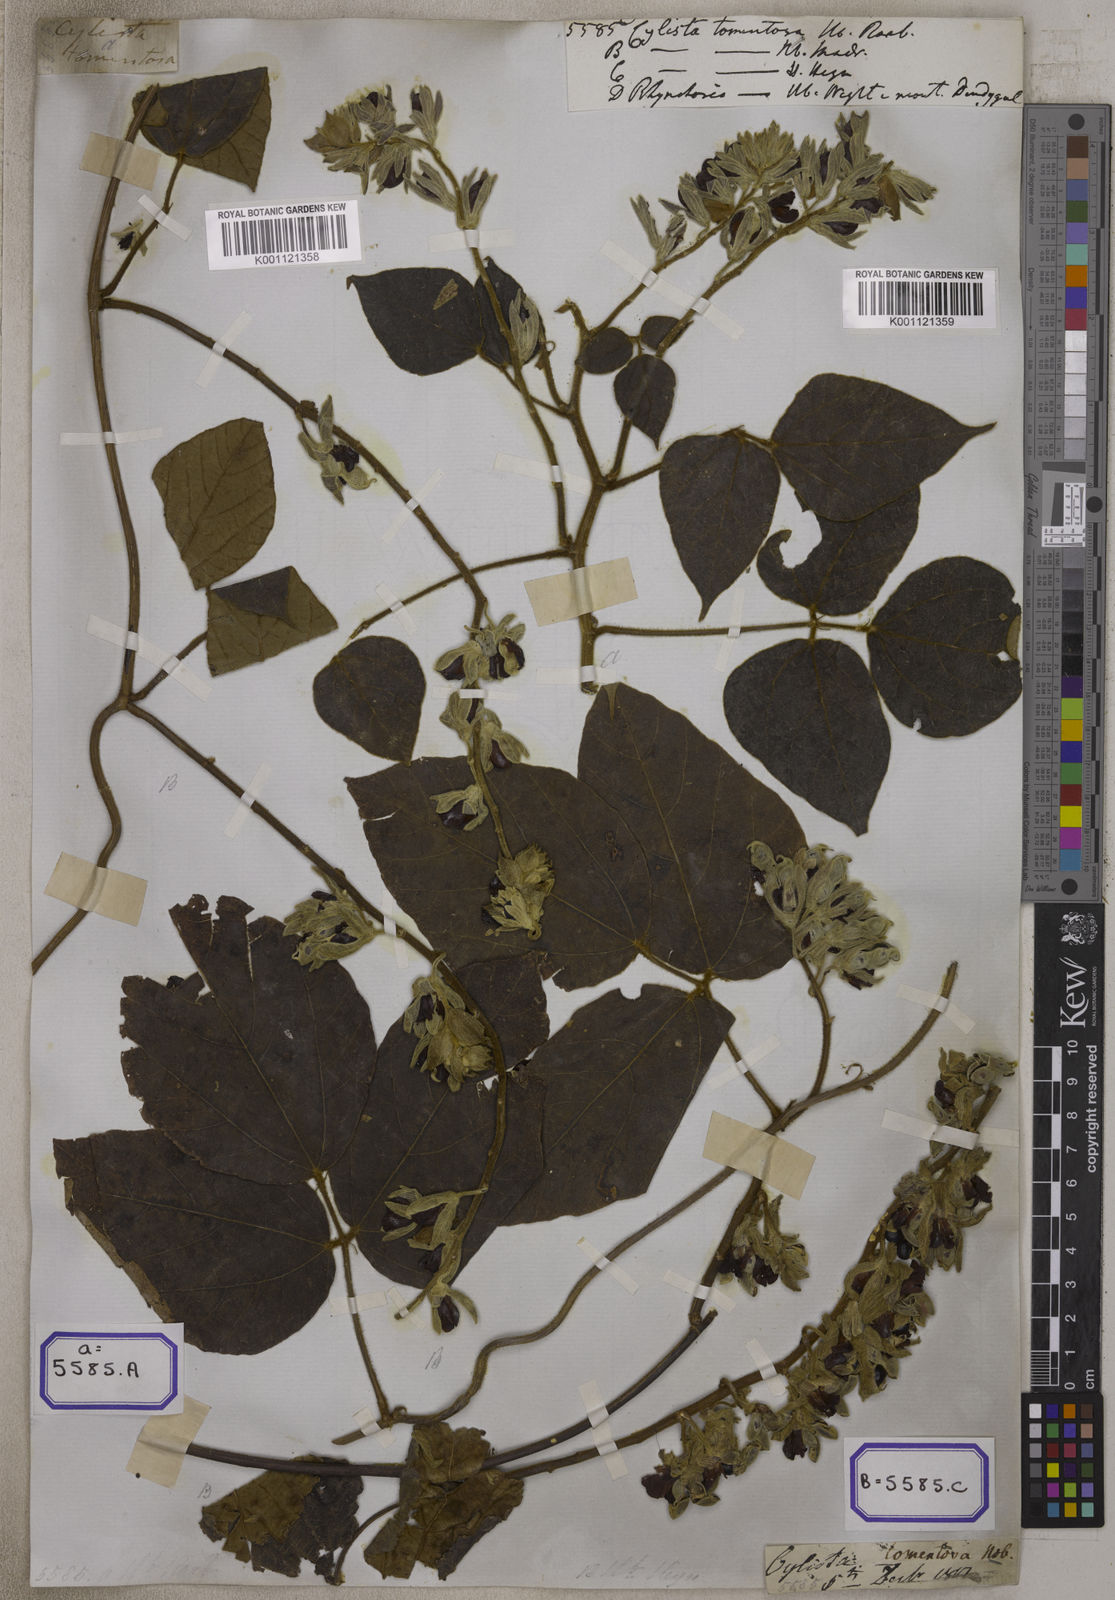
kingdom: Plantae
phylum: Tracheophyta
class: Magnoliopsida
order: Fabales
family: Fabaceae
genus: Rhynchosia
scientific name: Rhynchosia hirta
